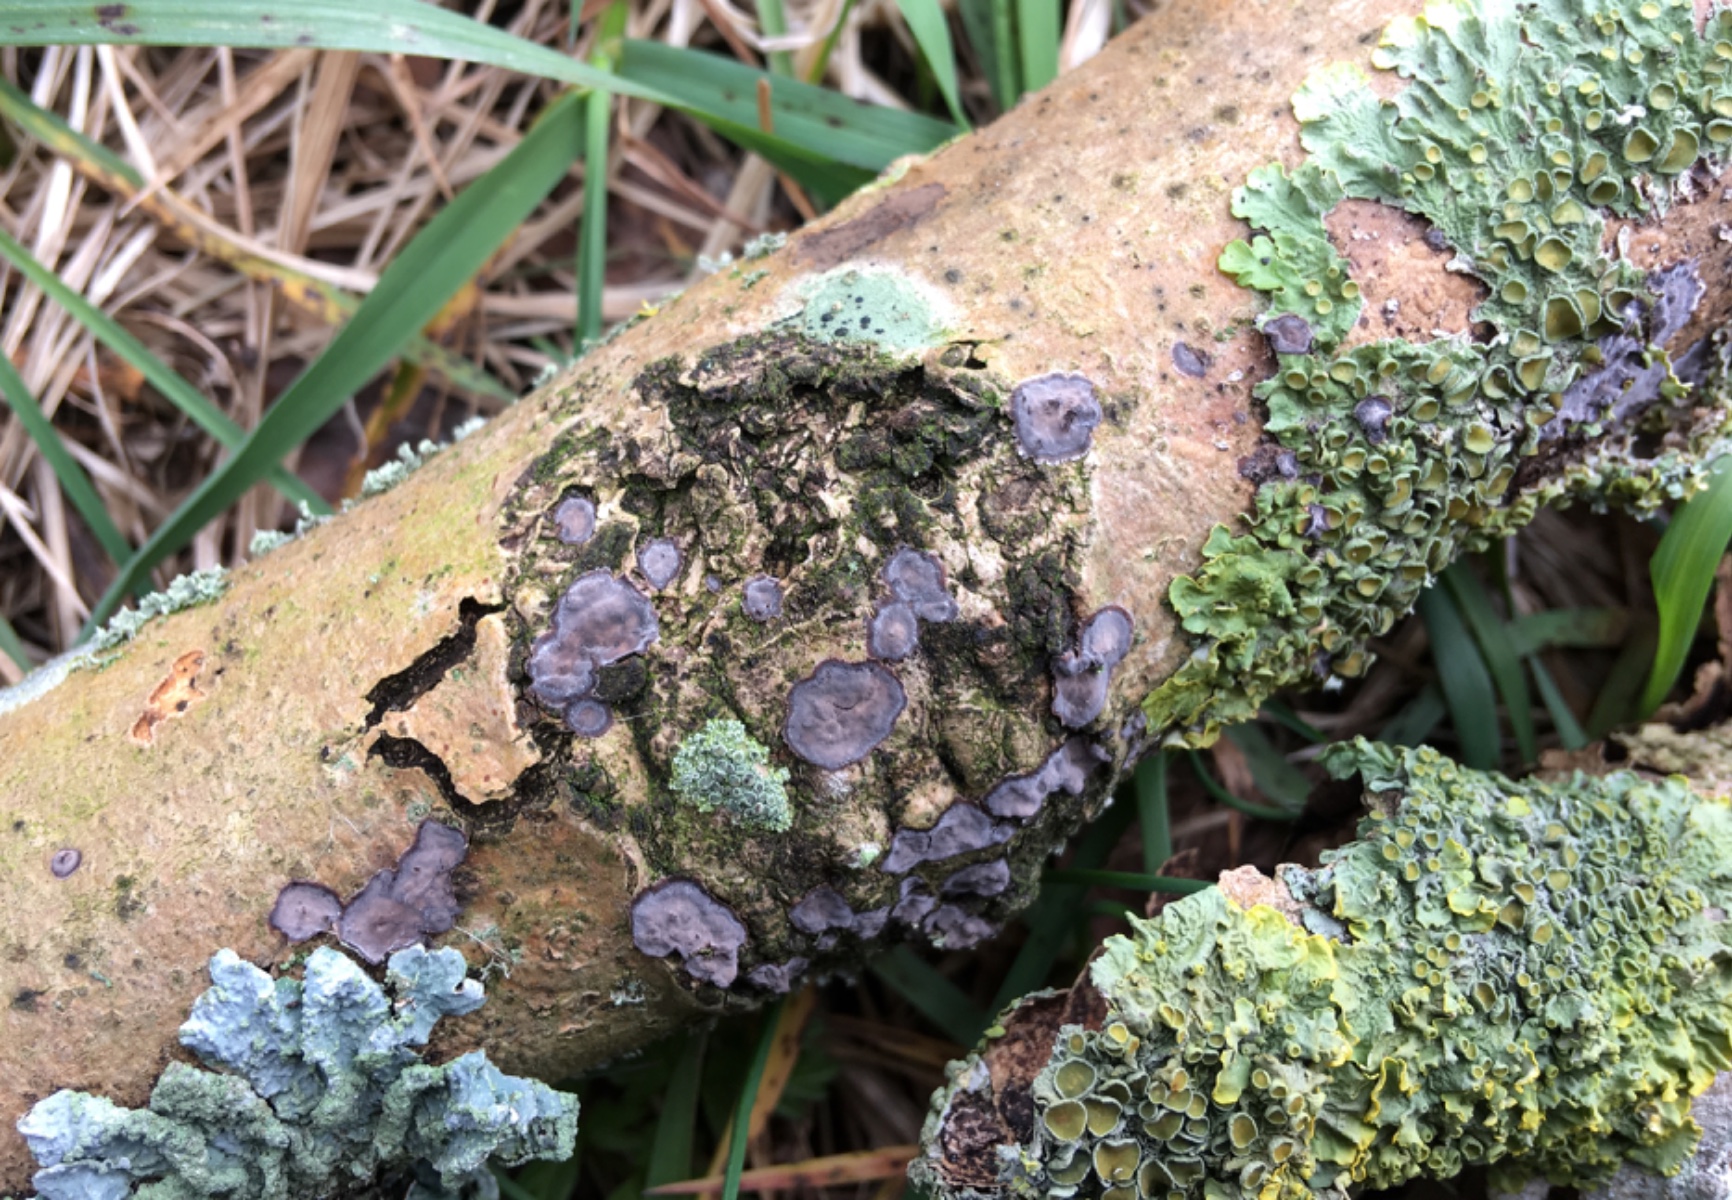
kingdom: Fungi
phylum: Basidiomycota
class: Agaricomycetes
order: Russulales
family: Peniophoraceae
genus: Peniophora
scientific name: Peniophora limitata
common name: mørkrandet voksskind
